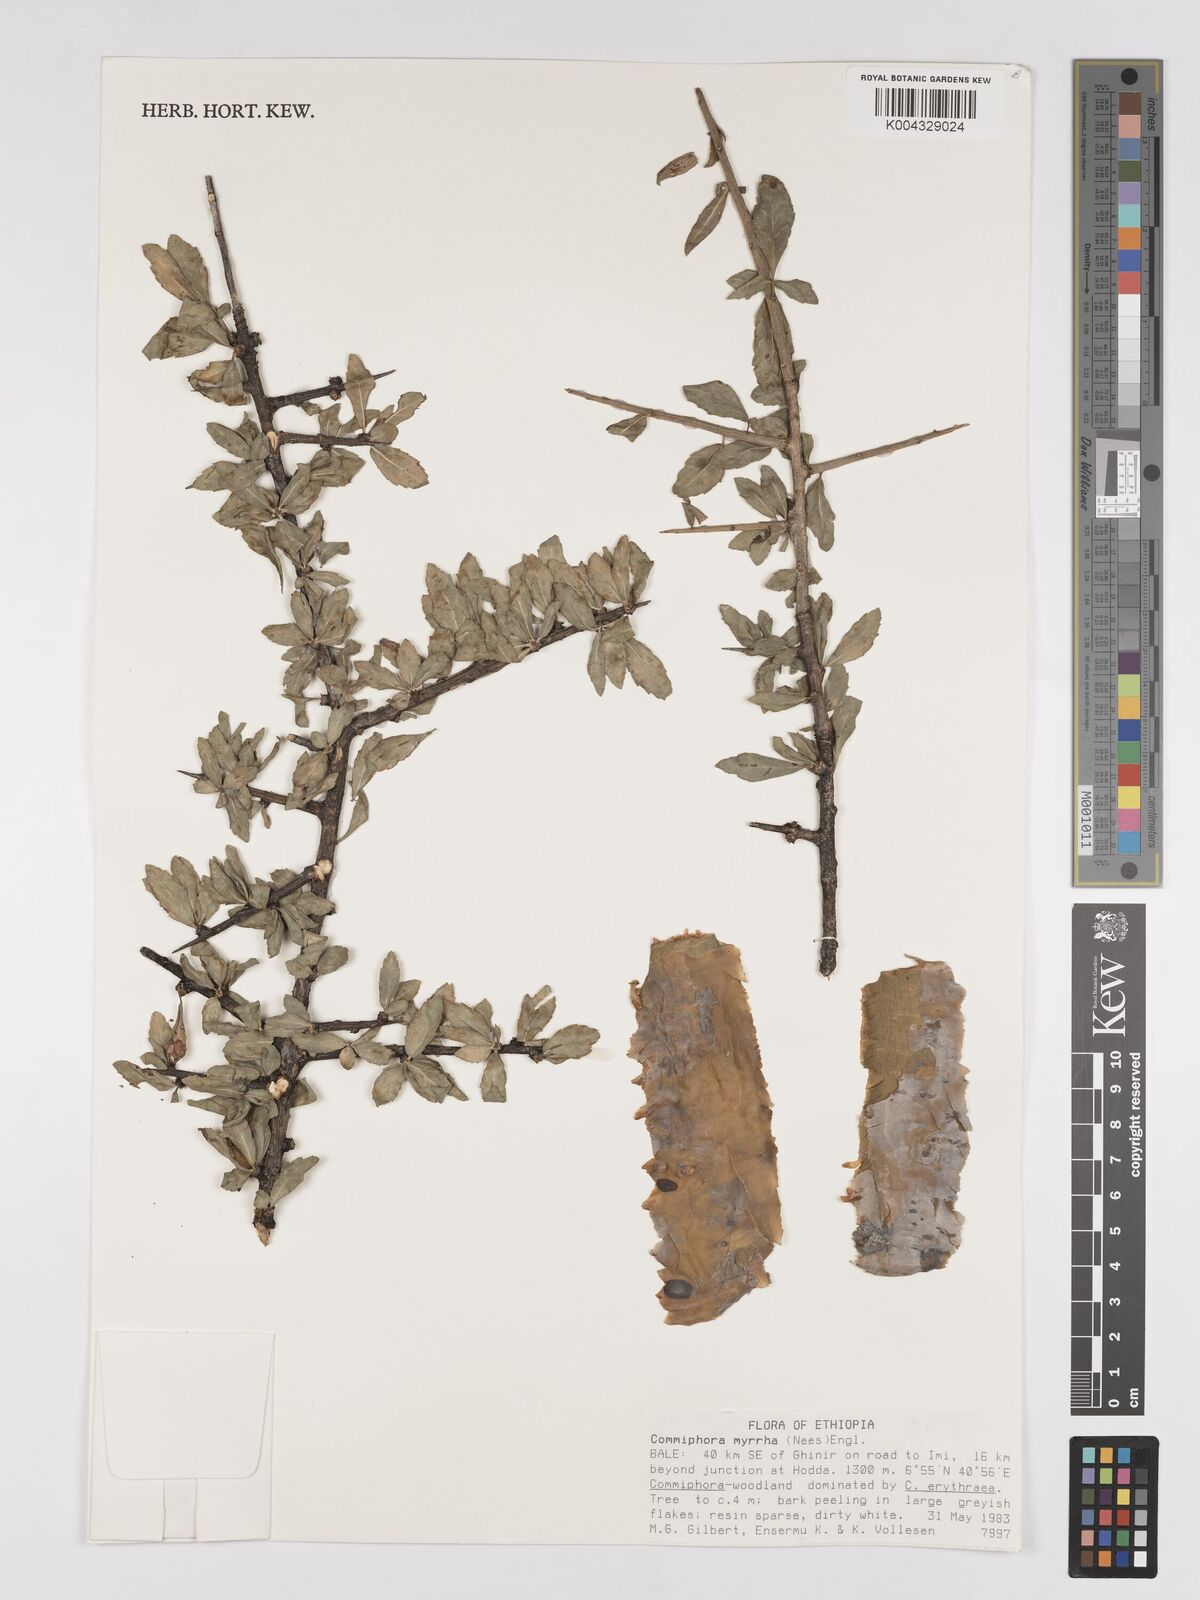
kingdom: Plantae
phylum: Tracheophyta
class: Magnoliopsida
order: Sapindales
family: Burseraceae
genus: Commiphora
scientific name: Commiphora myrrha
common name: African myrrh
